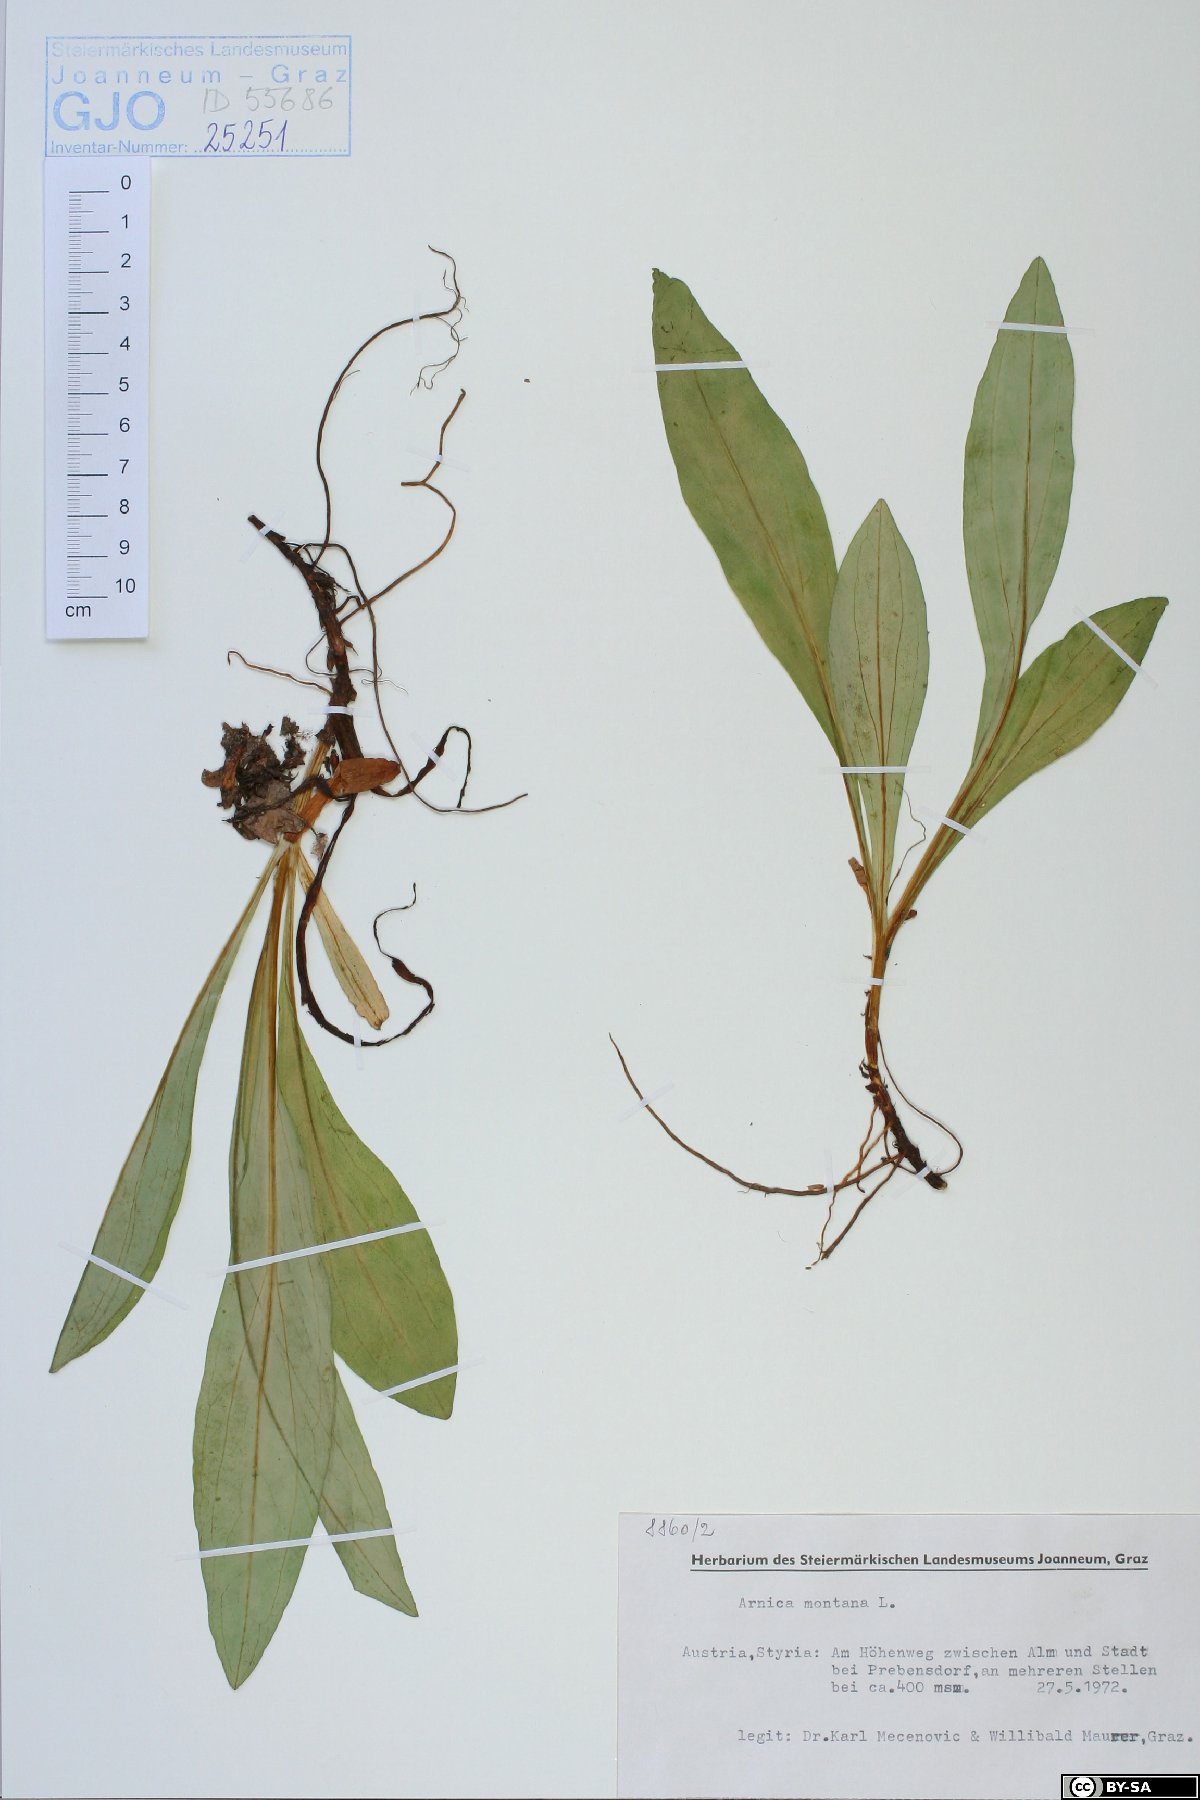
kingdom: Plantae
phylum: Tracheophyta
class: Magnoliopsida
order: Asterales
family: Asteraceae
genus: Arnica
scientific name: Arnica montana
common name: Leopard's bane
